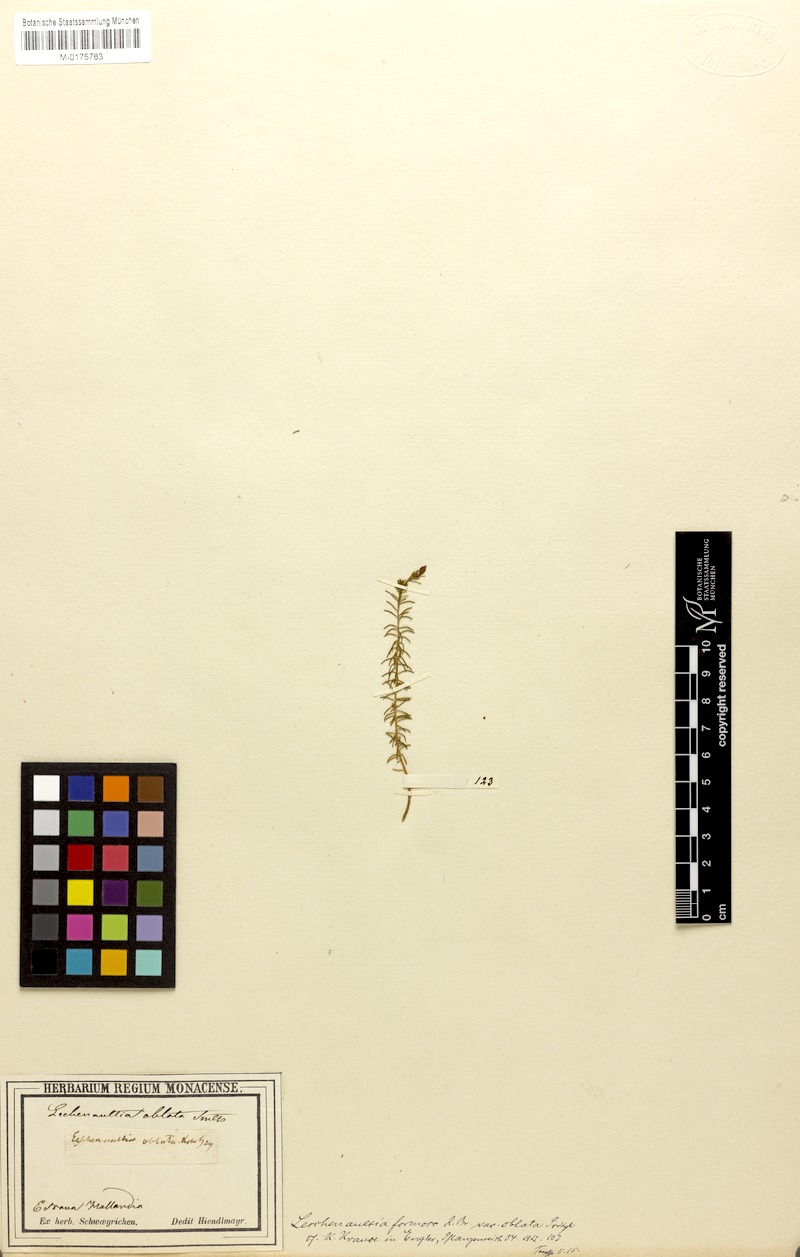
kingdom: Plantae
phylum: Tracheophyta
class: Magnoliopsida
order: Asterales
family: Goodeniaceae
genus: Lechenaultia
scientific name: Lechenaultia formosa
